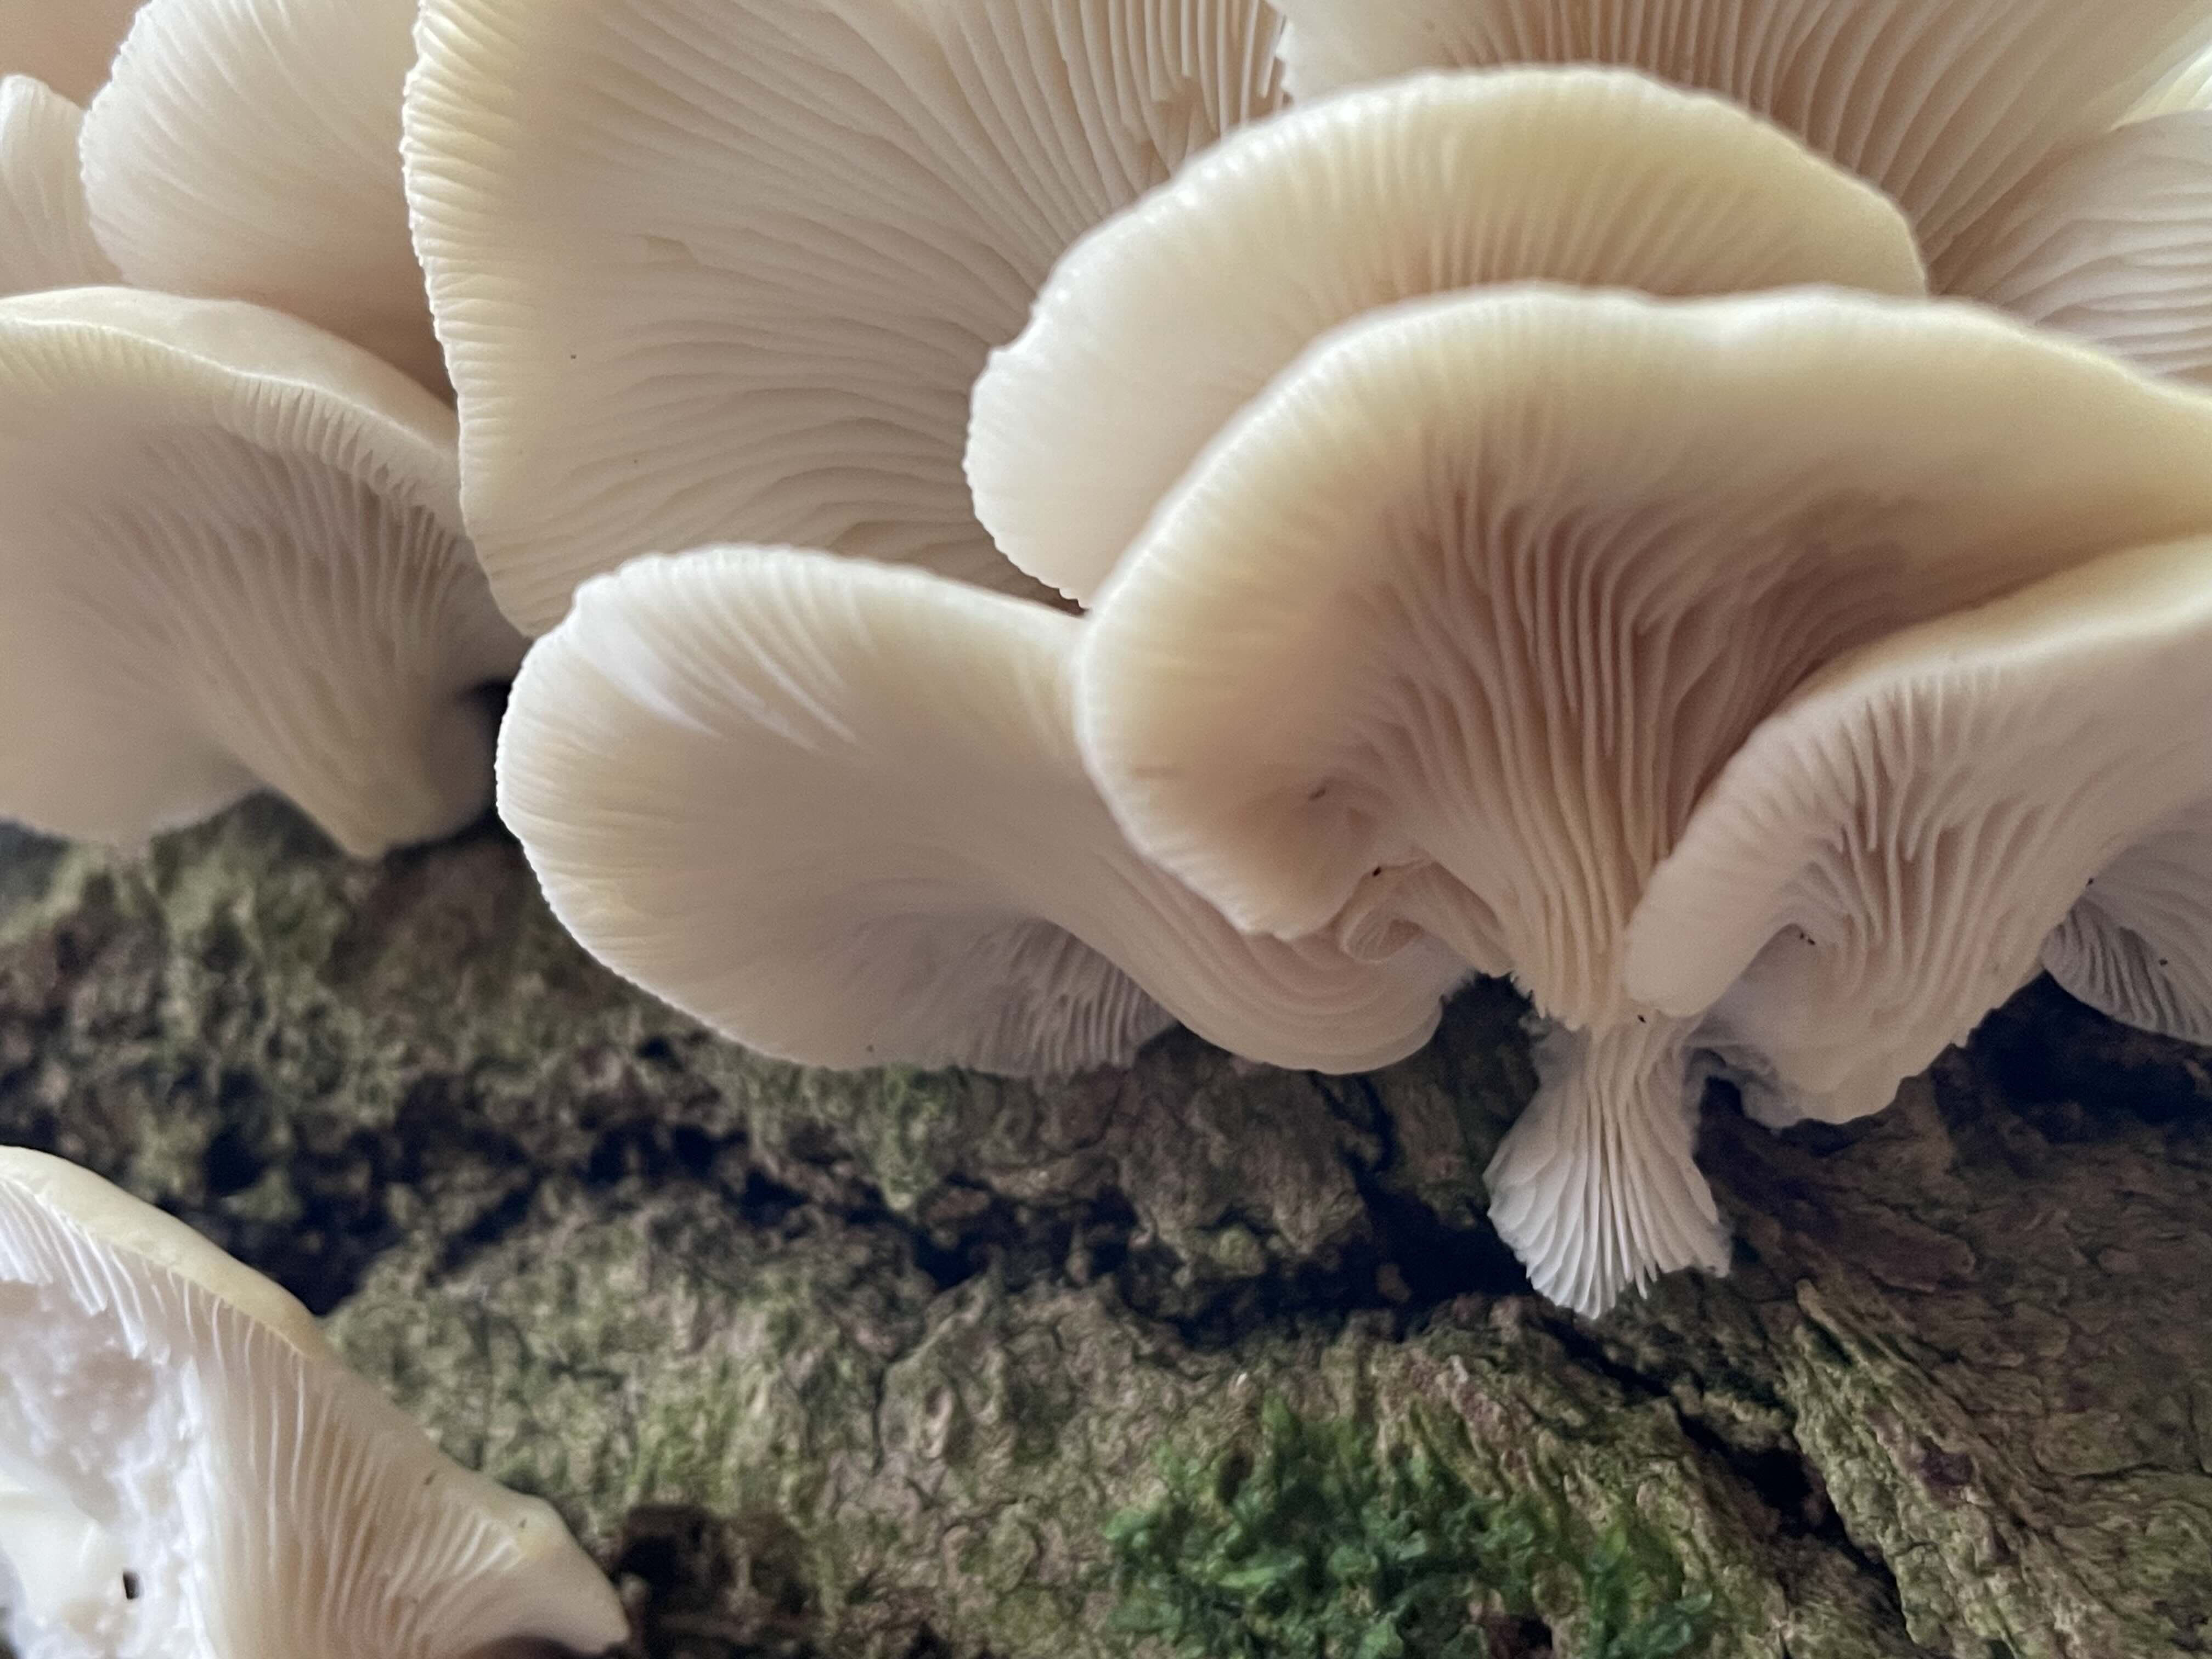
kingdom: Fungi
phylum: Basidiomycota
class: Agaricomycetes
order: Agaricales
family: Pleurotaceae
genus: Pleurotus
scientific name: Pleurotus pulmonarius
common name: sommer-østershat
